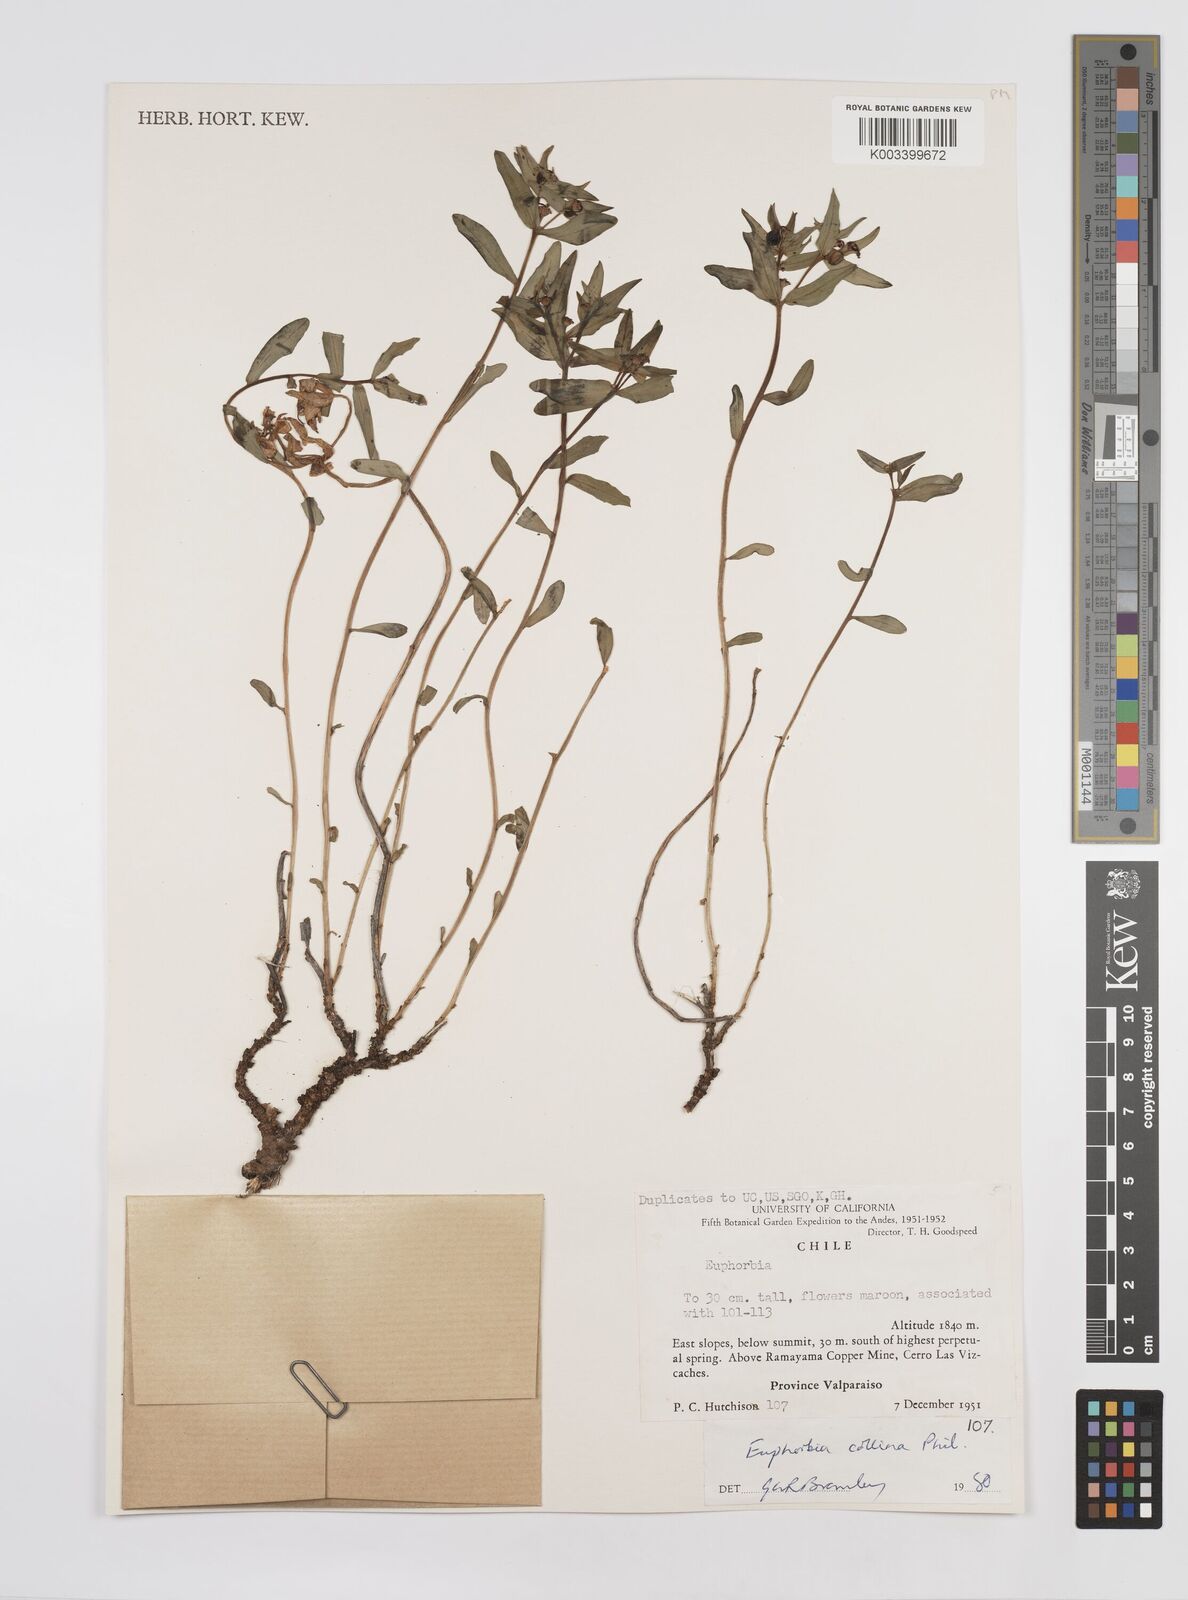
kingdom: Plantae
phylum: Tracheophyta
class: Magnoliopsida
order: Malpighiales
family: Euphorbiaceae
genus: Euphorbia
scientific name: Euphorbia
